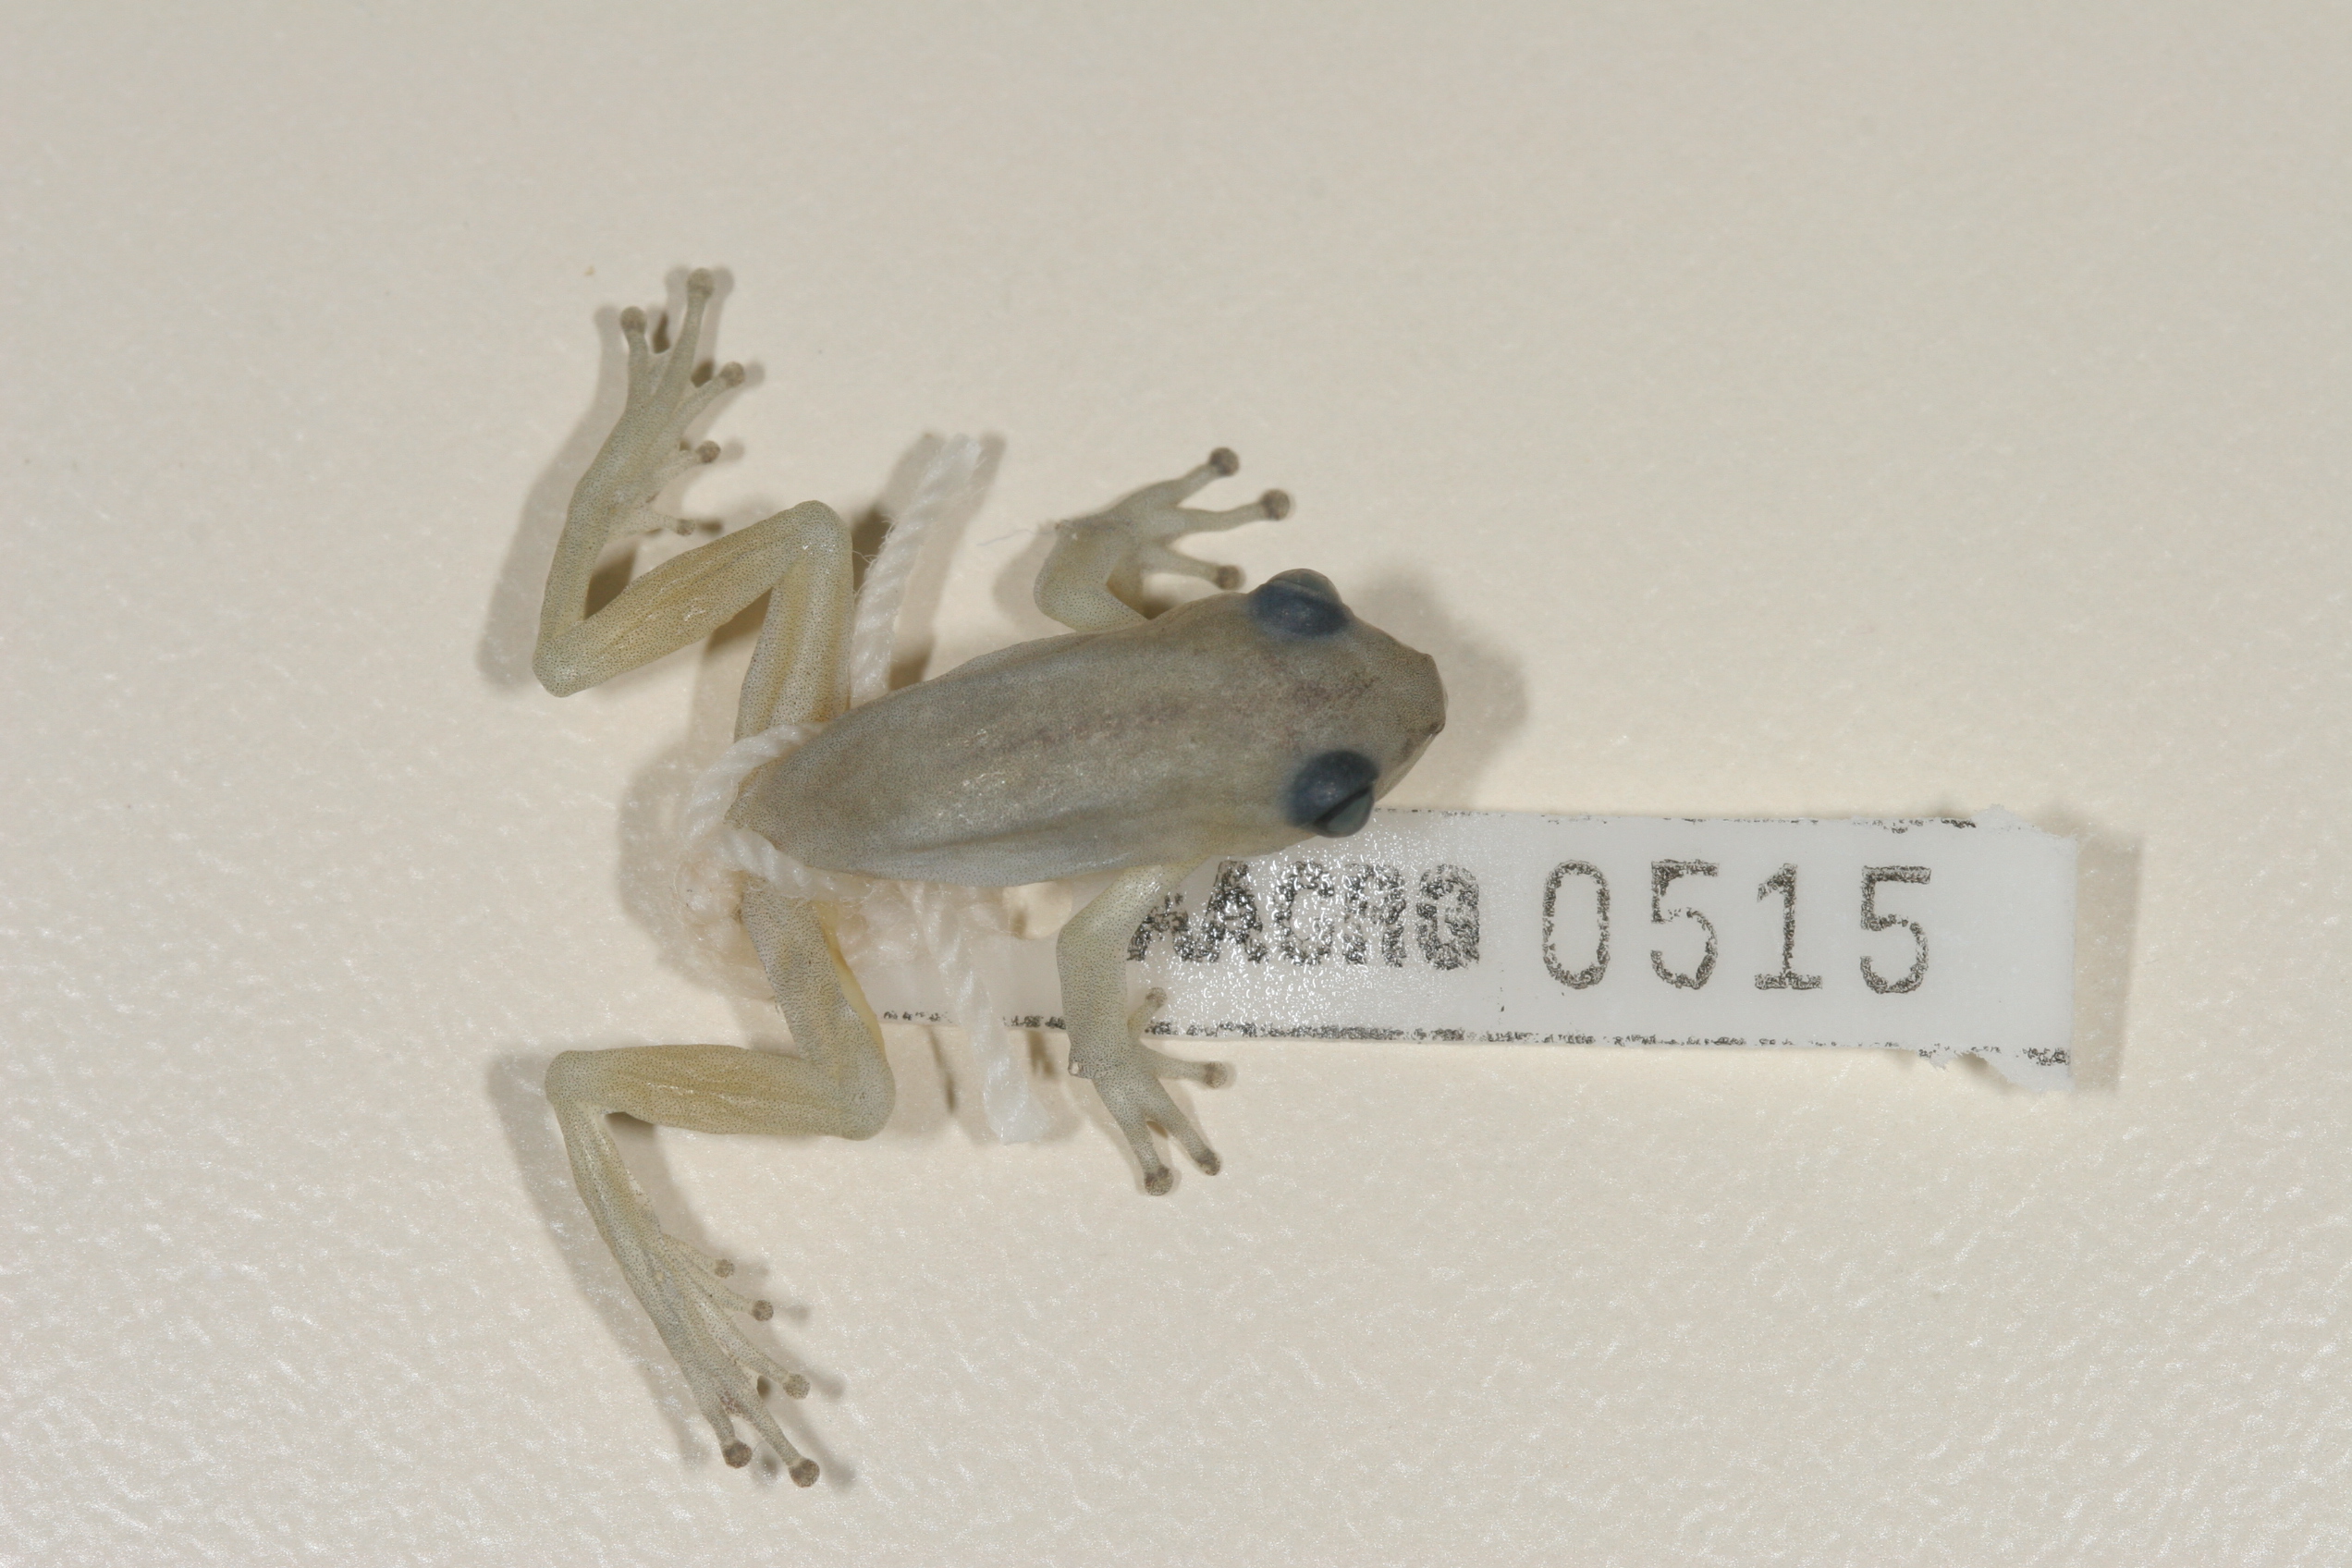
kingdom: Animalia
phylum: Chordata
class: Amphibia
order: Anura
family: Hyperoliidae
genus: Hyperolius
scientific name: Hyperolius pickersgilli
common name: Pickersgill's reed frog
